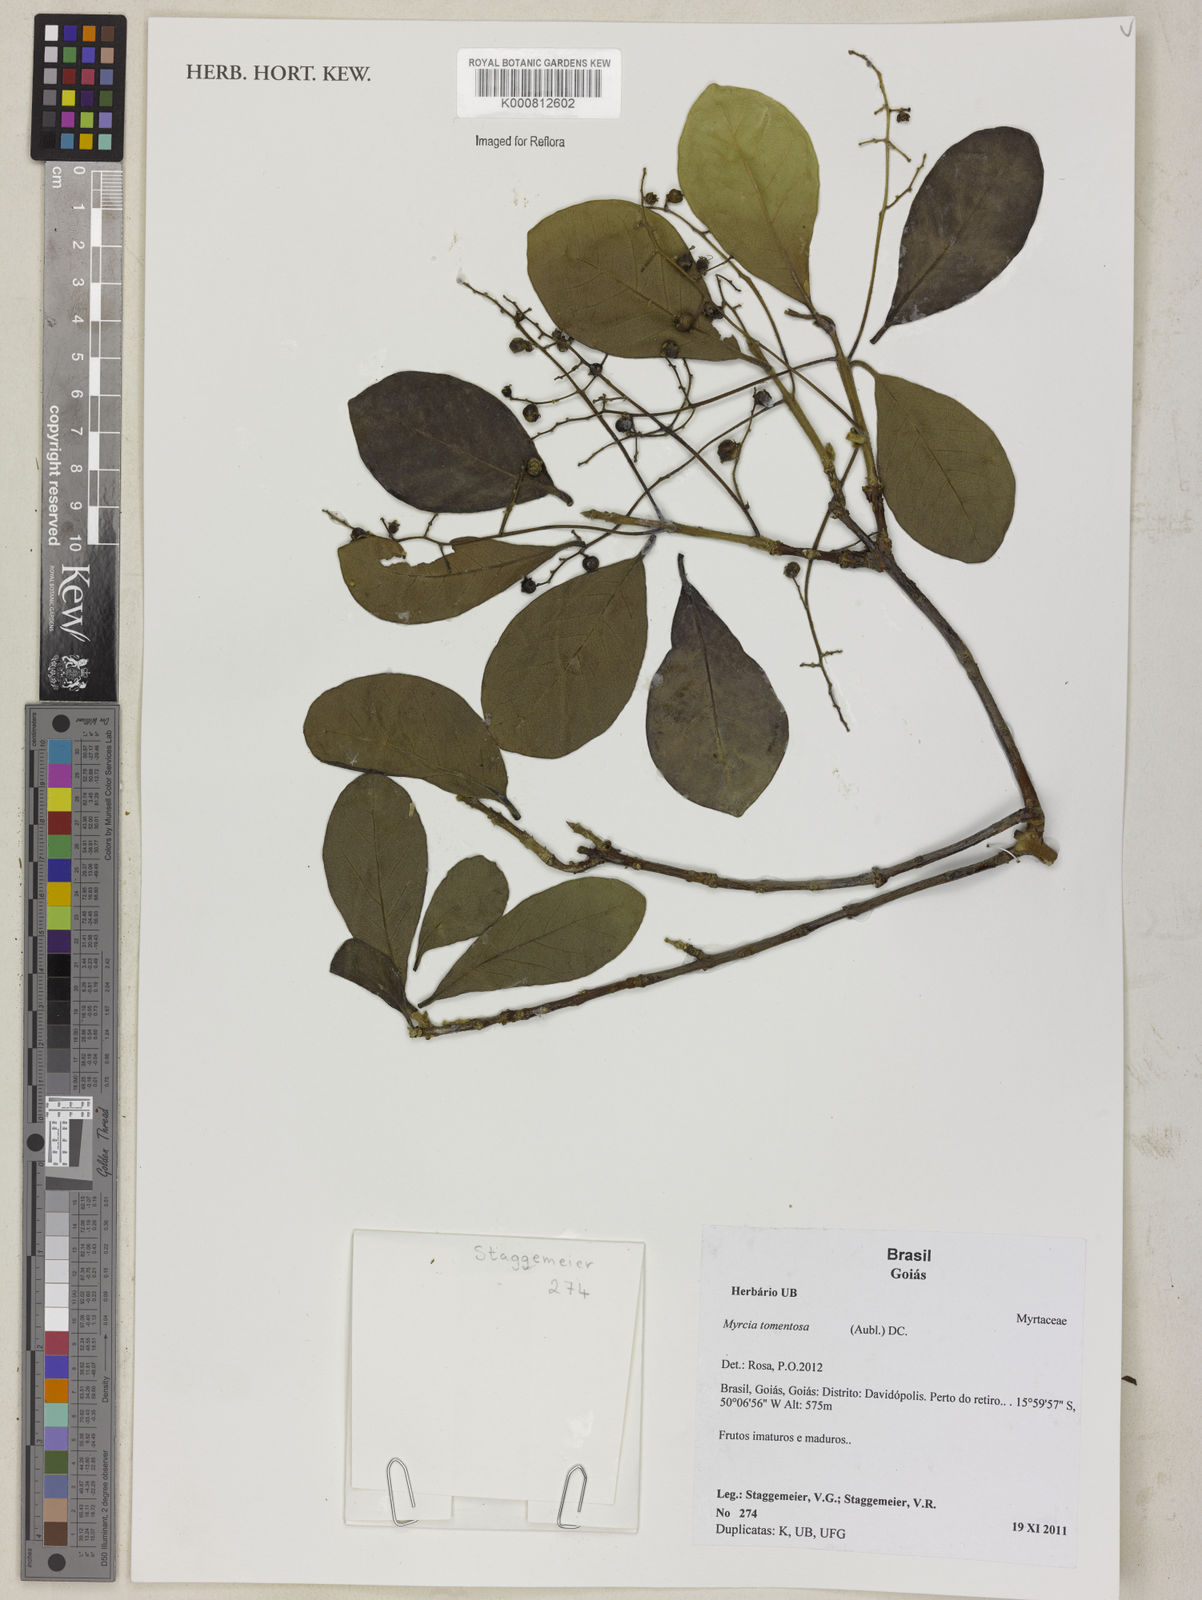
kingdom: Plantae
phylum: Tracheophyta
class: Magnoliopsida
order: Myrtales
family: Myrtaceae
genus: Myrcia
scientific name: Myrcia tomentosa
